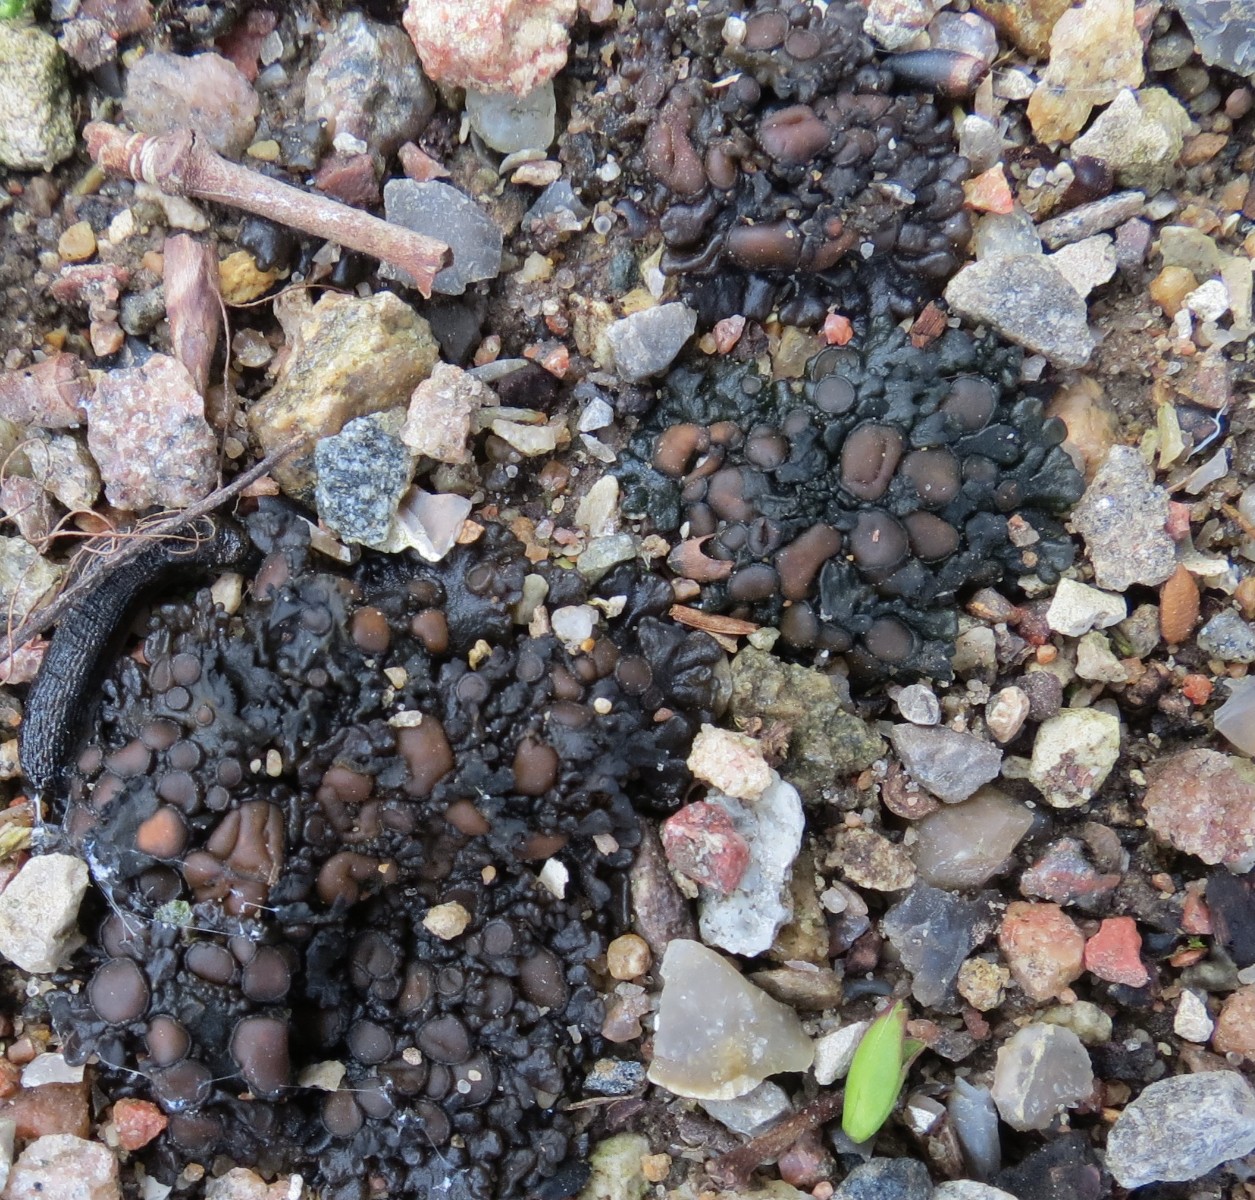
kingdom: Fungi
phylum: Ascomycota
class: Lecanoromycetes
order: Peltigerales
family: Collemataceae
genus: Enchylium
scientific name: Enchylium tenax
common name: tyk bævrelav
